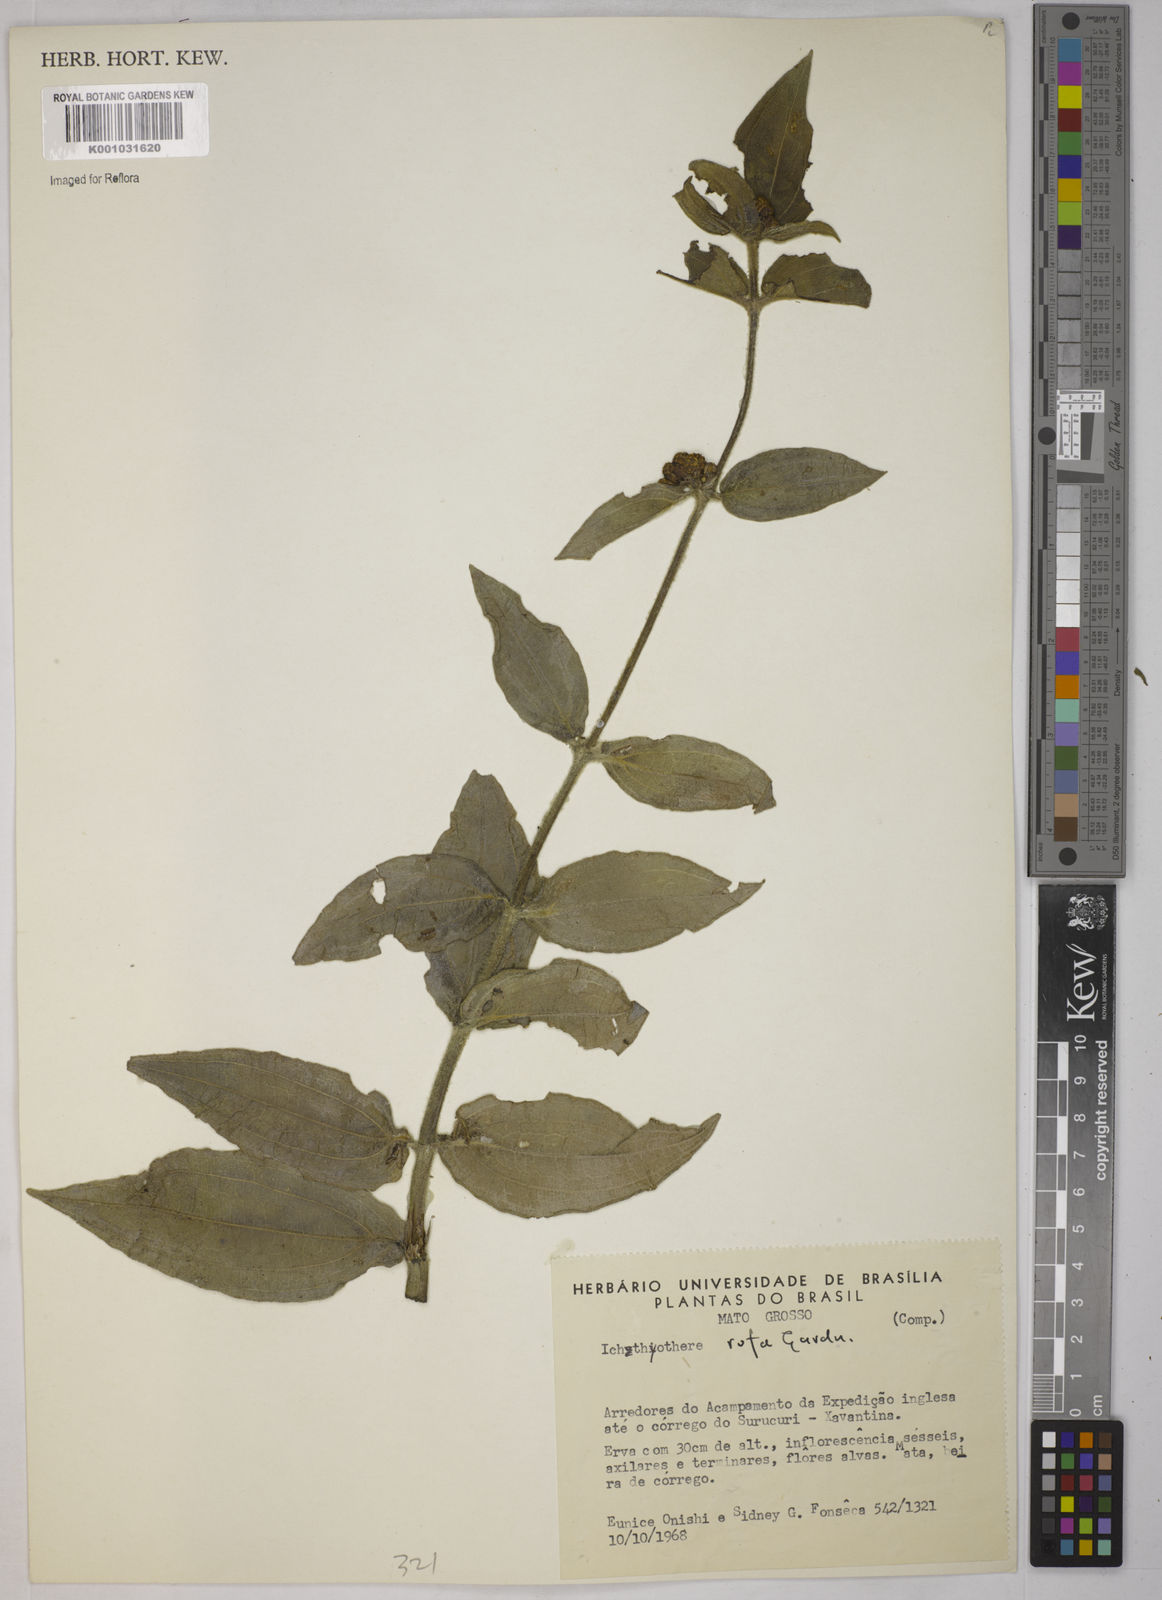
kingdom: Plantae
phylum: Tracheophyta
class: Magnoliopsida
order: Asterales
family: Asteraceae
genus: Ichthyothere
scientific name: Ichthyothere rufa
